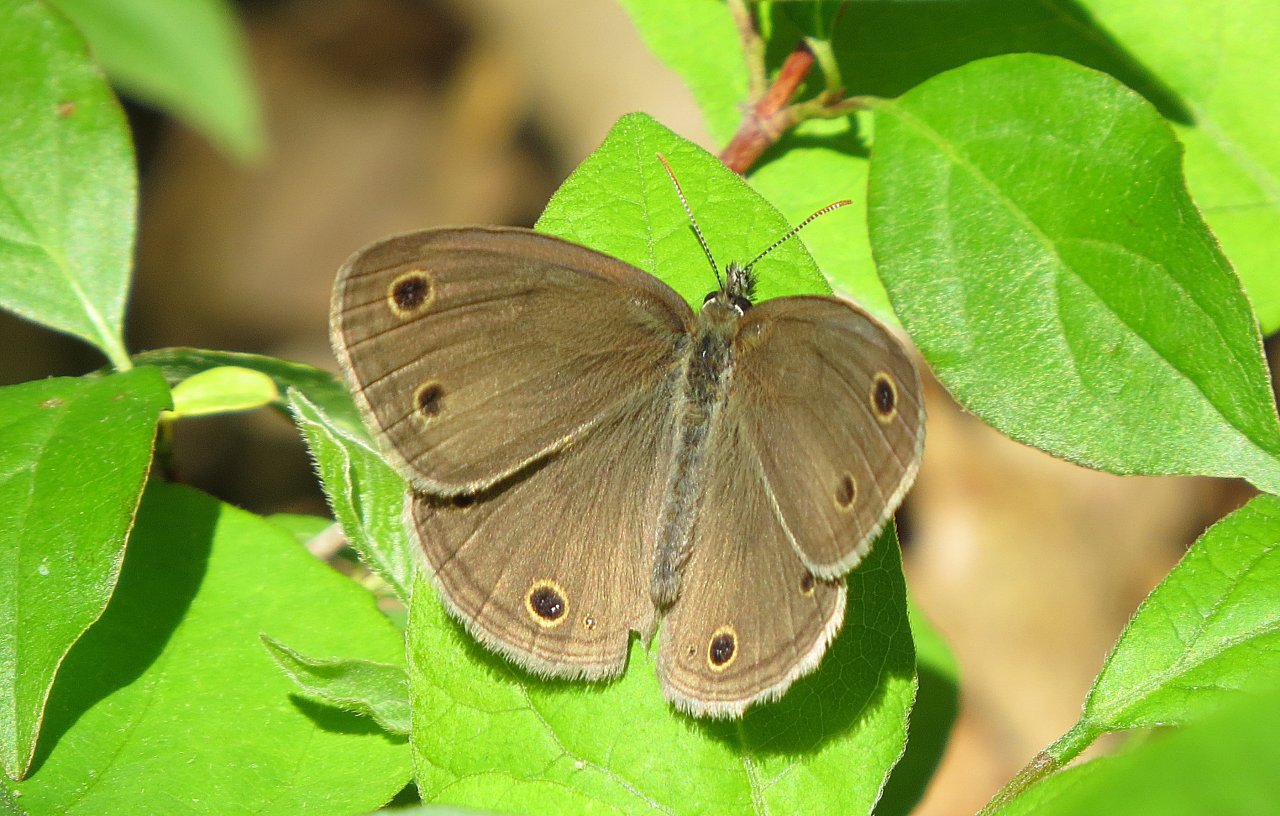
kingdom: Animalia
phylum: Arthropoda
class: Insecta
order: Lepidoptera
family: Nymphalidae
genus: Euptychia
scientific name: Euptychia cymela
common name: Little Wood Satyr
